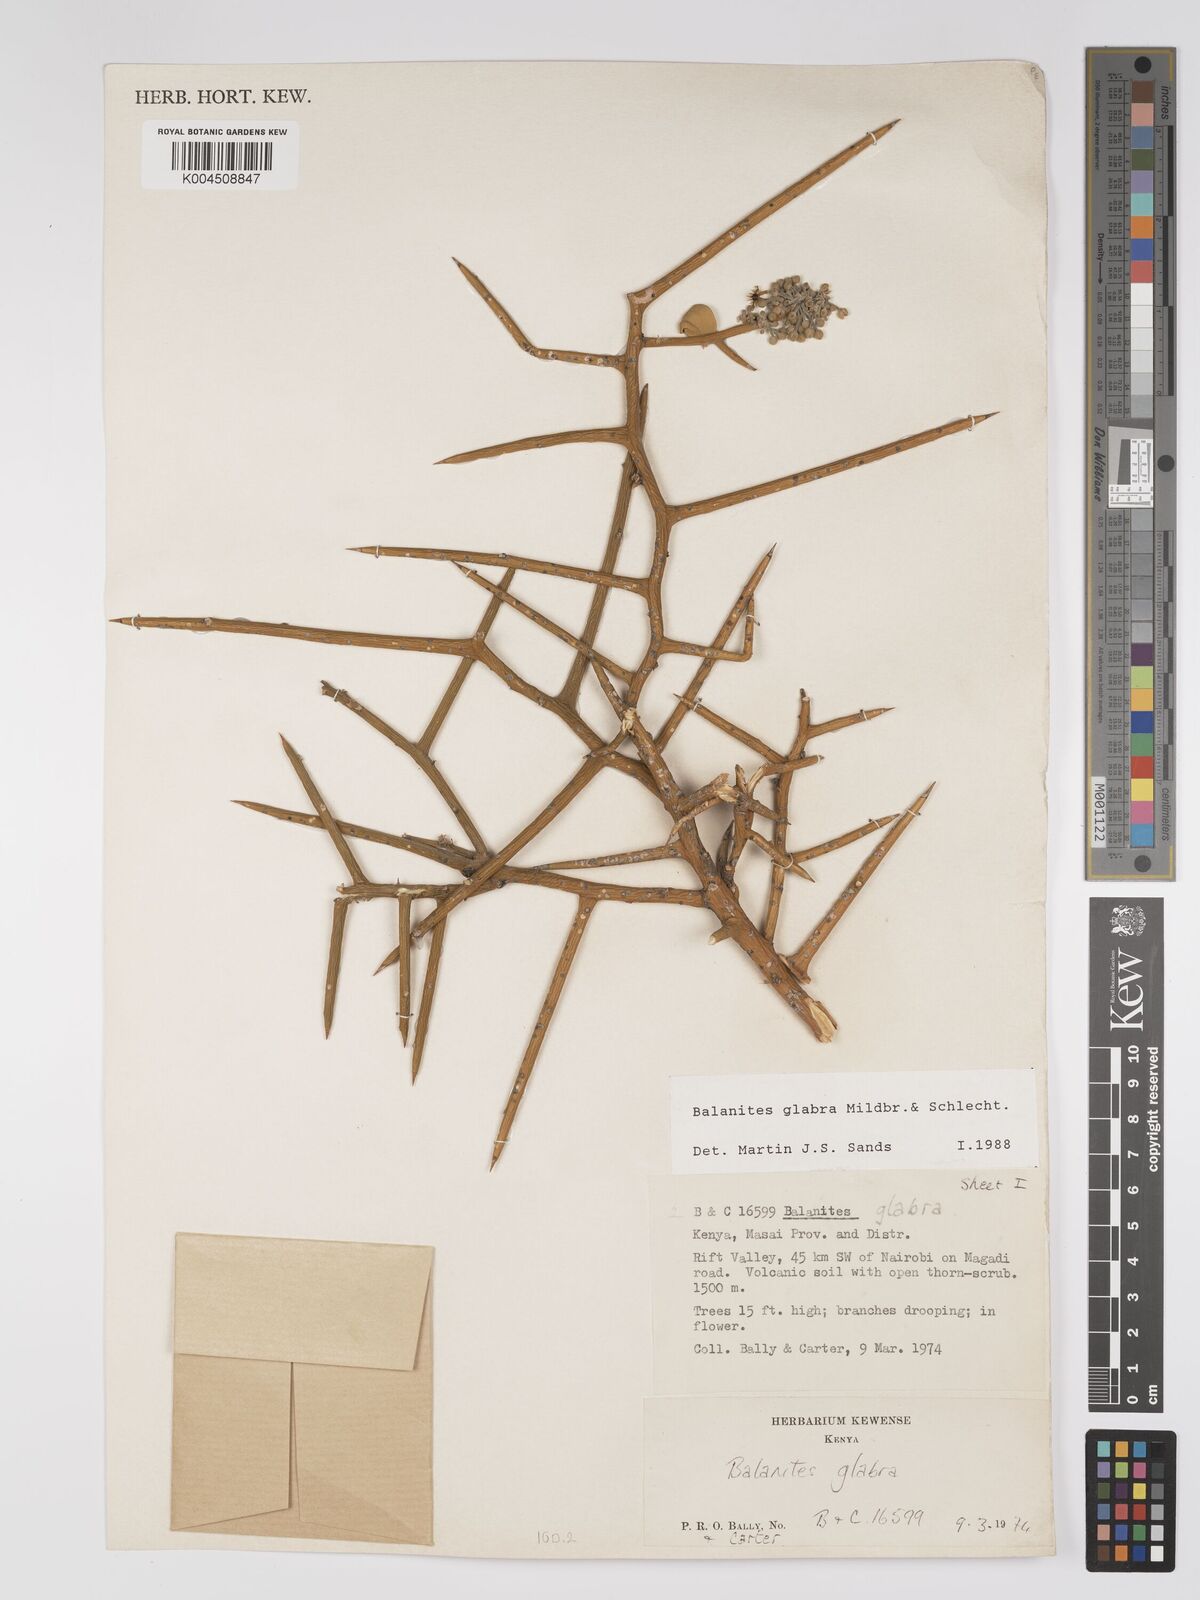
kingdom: Plantae
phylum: Tracheophyta
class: Magnoliopsida
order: Zygophyllales
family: Zygophyllaceae
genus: Balanites
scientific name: Balanites glabra
